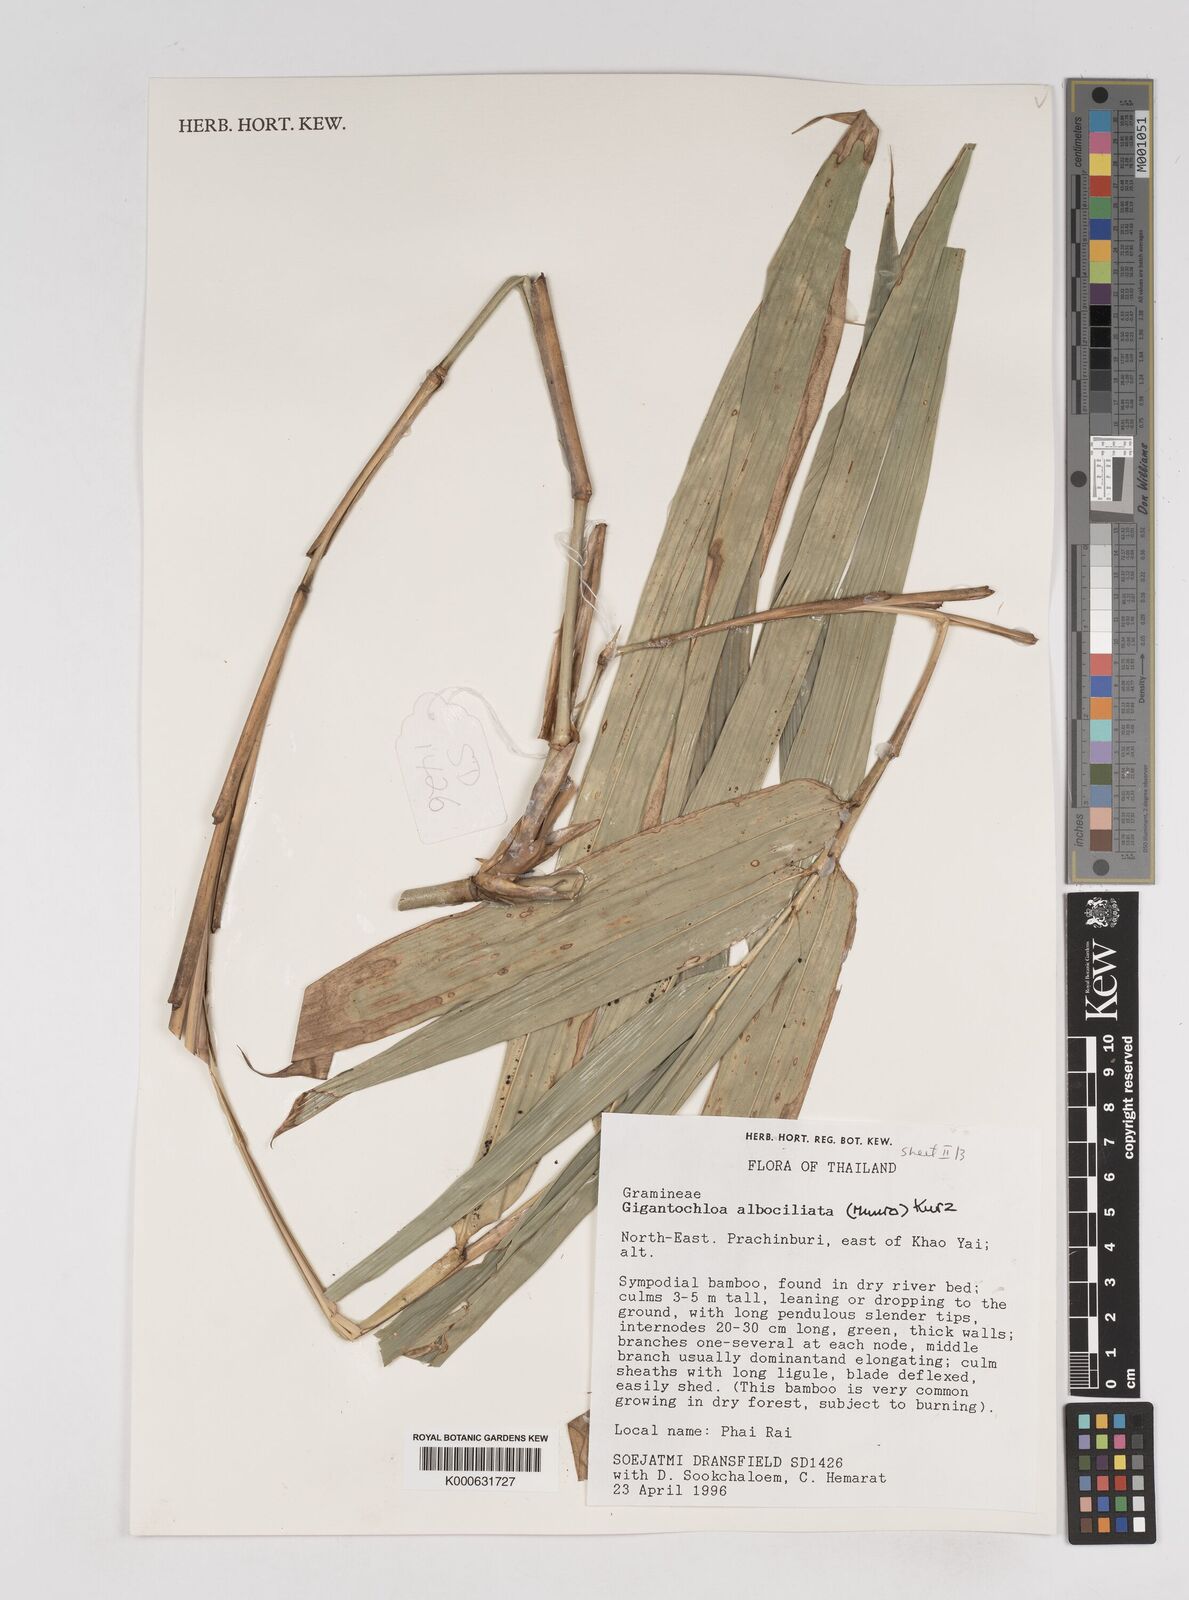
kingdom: Plantae
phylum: Tracheophyta
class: Liliopsida
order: Poales
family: Poaceae
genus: Gigantochloa
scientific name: Gigantochloa albociliata
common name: White-fringe gigantochloa
